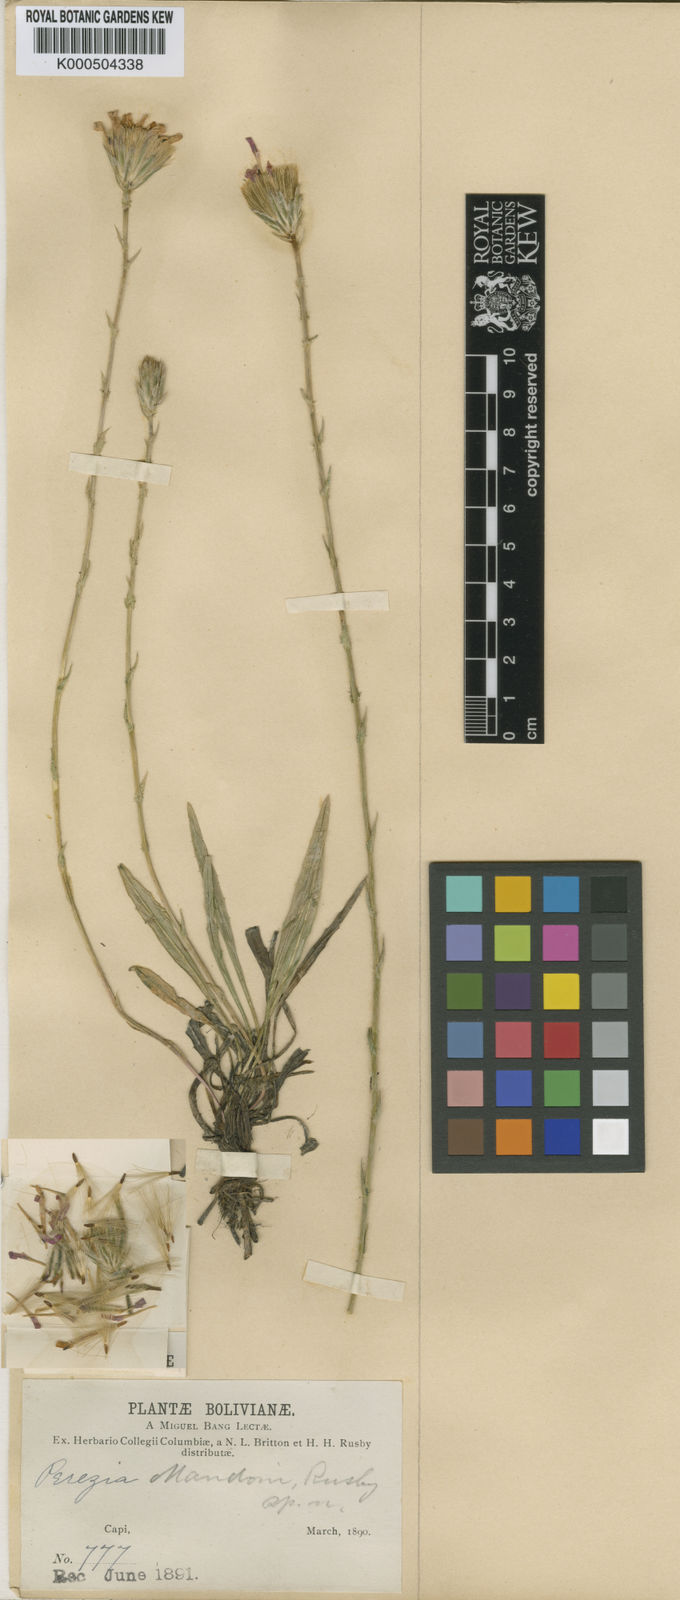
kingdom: Plantae
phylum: Tracheophyta
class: Magnoliopsida
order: Asterales
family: Asteraceae
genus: Perezia
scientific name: Perezia pungens
